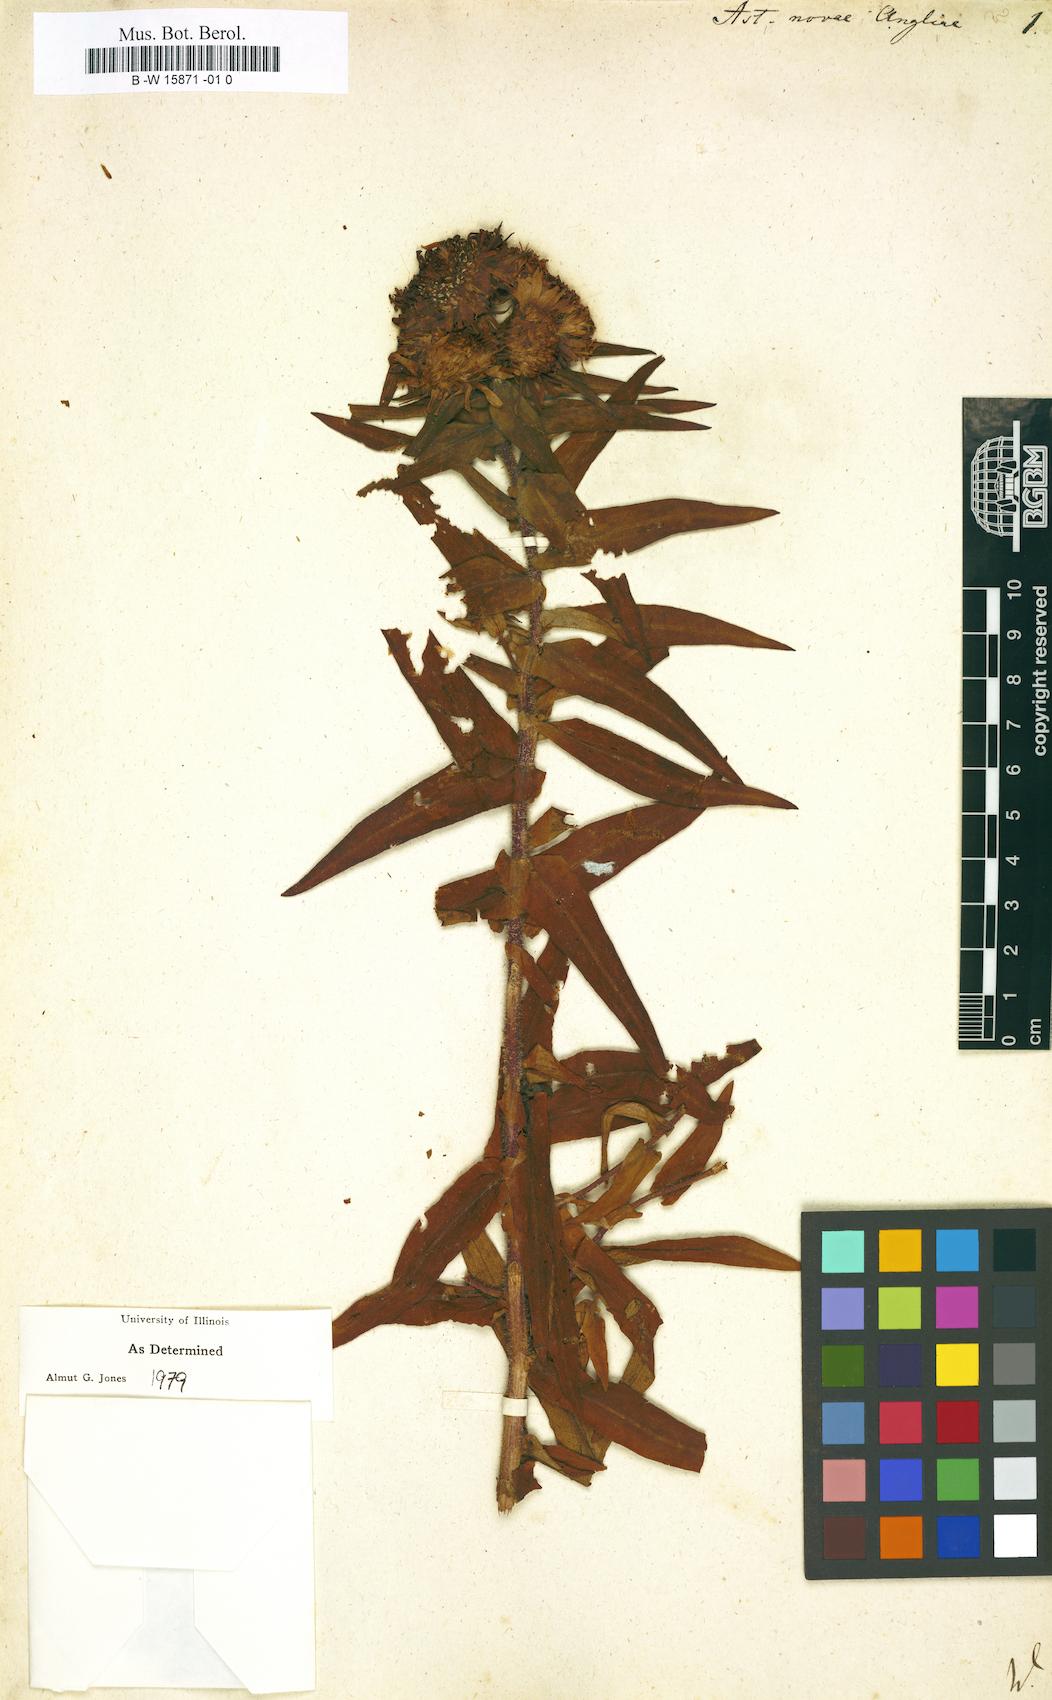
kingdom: Plantae
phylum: Tracheophyta
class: Magnoliopsida
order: Asterales
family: Asteraceae
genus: Symphyotrichum
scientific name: Symphyotrichum novae-angliae
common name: Michaelmas daisy
